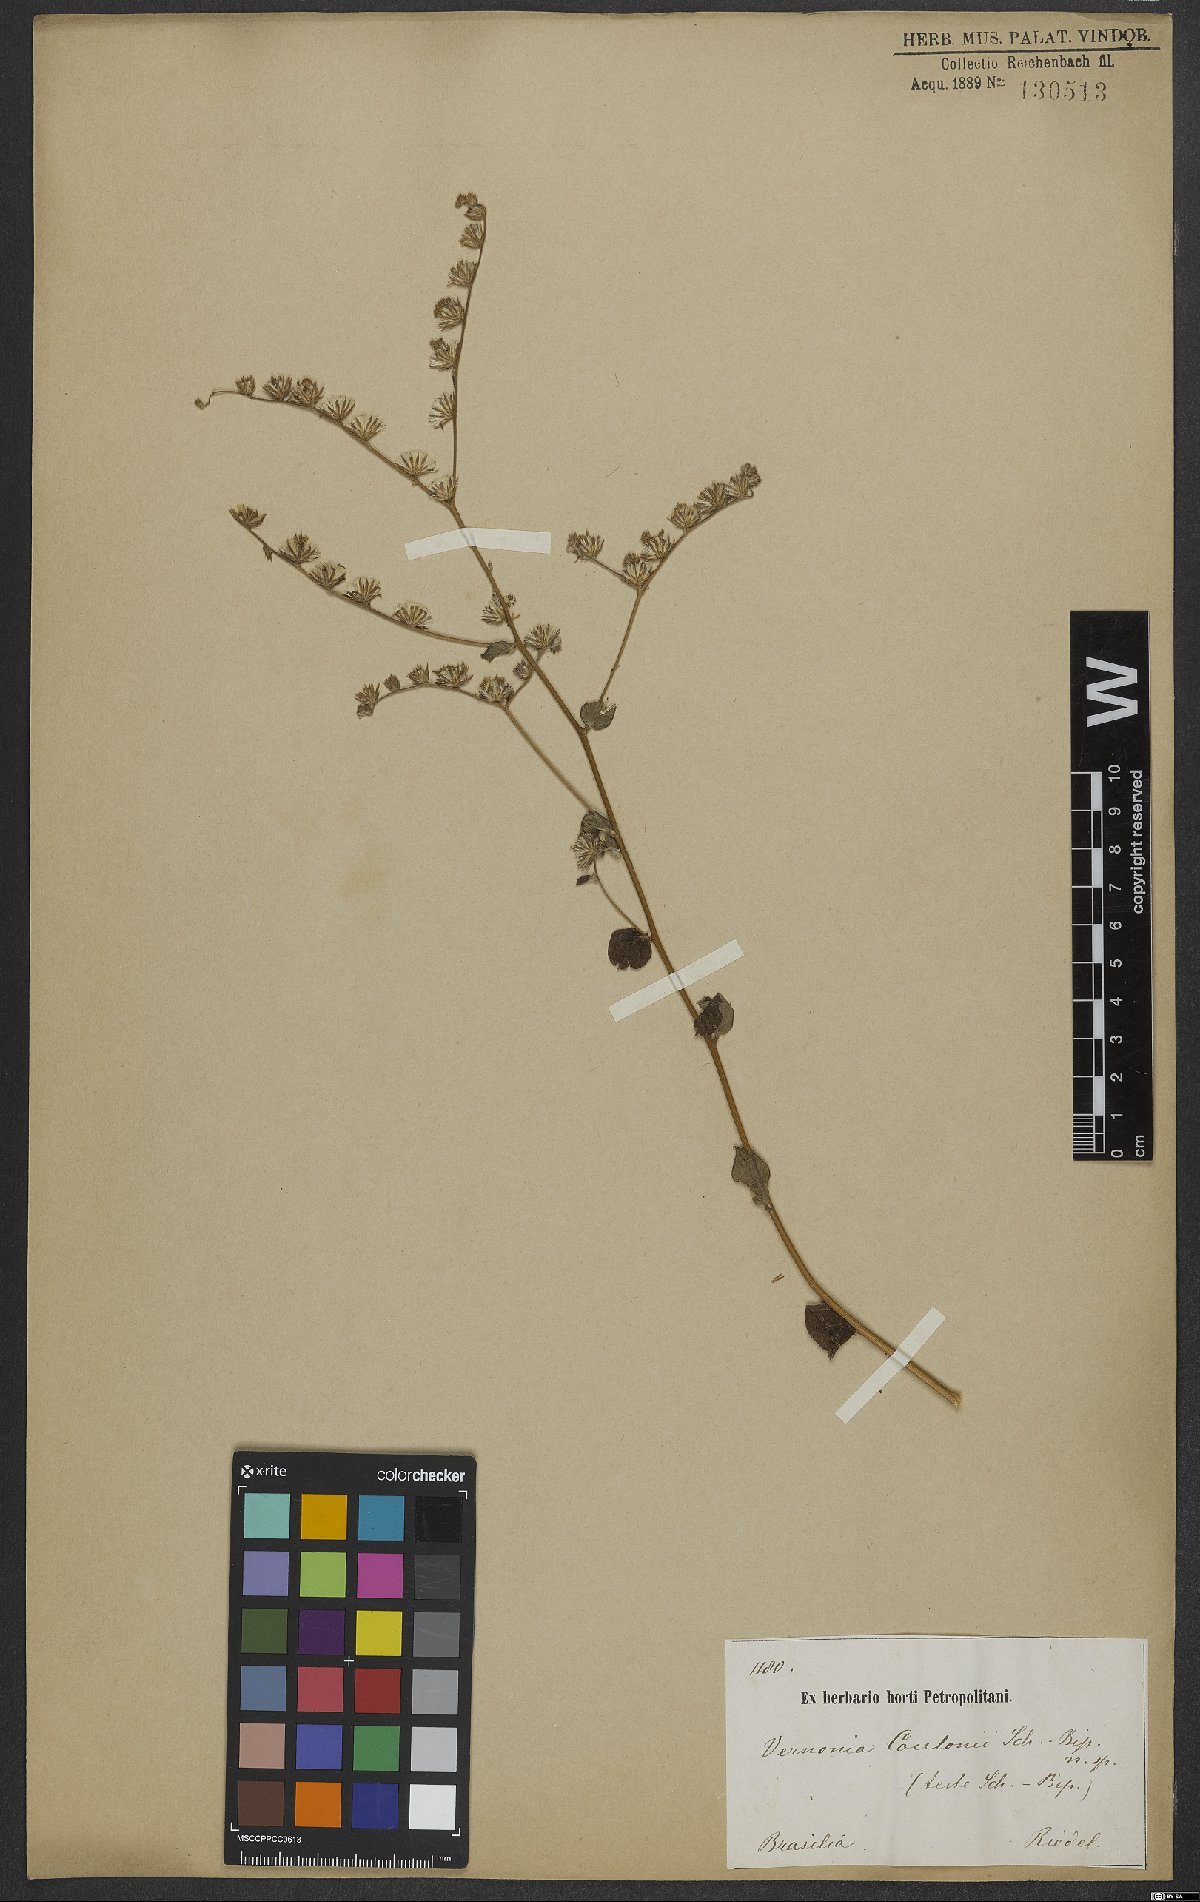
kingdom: Plantae
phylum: Tracheophyta
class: Magnoliopsida
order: Asterales
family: Asteraceae
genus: Lepidaploa
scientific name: Lepidaploa sororia
